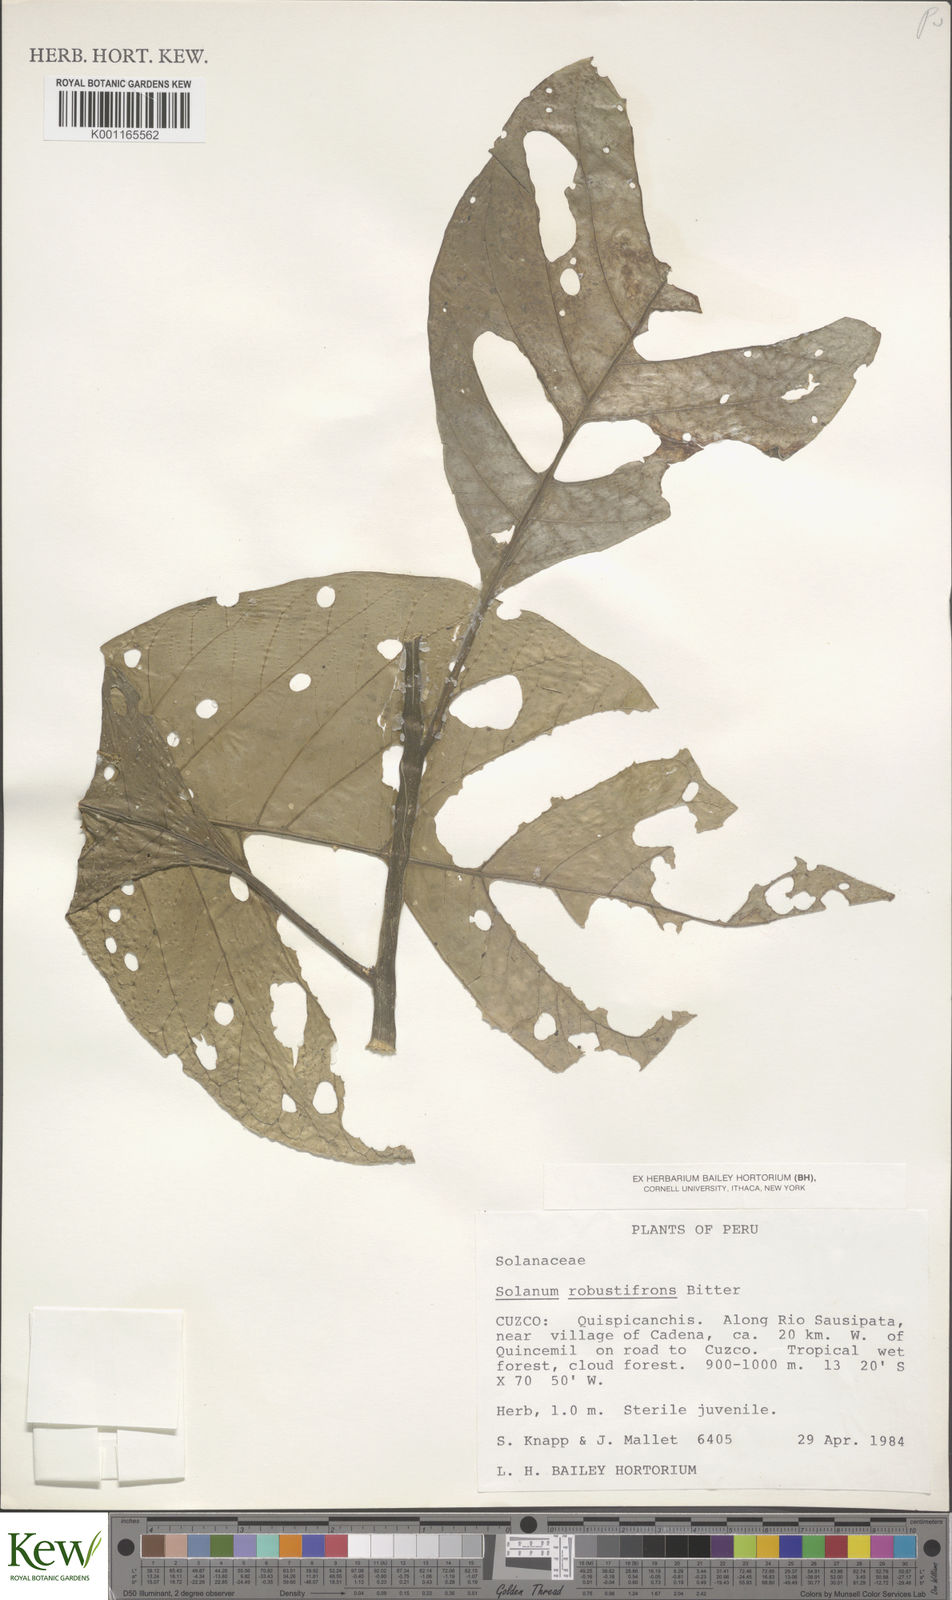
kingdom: Plantae
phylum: Tracheophyta
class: Magnoliopsida
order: Solanales
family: Solanaceae
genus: Solanum
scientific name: Solanum robustifrons
